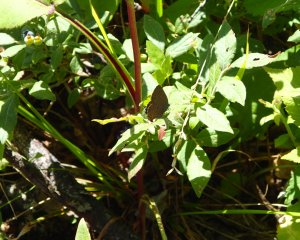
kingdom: Animalia
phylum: Arthropoda
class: Insecta
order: Lepidoptera
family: Lycaenidae
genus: Satyrium
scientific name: Satyrium liparops
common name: Striped Hairstreak
